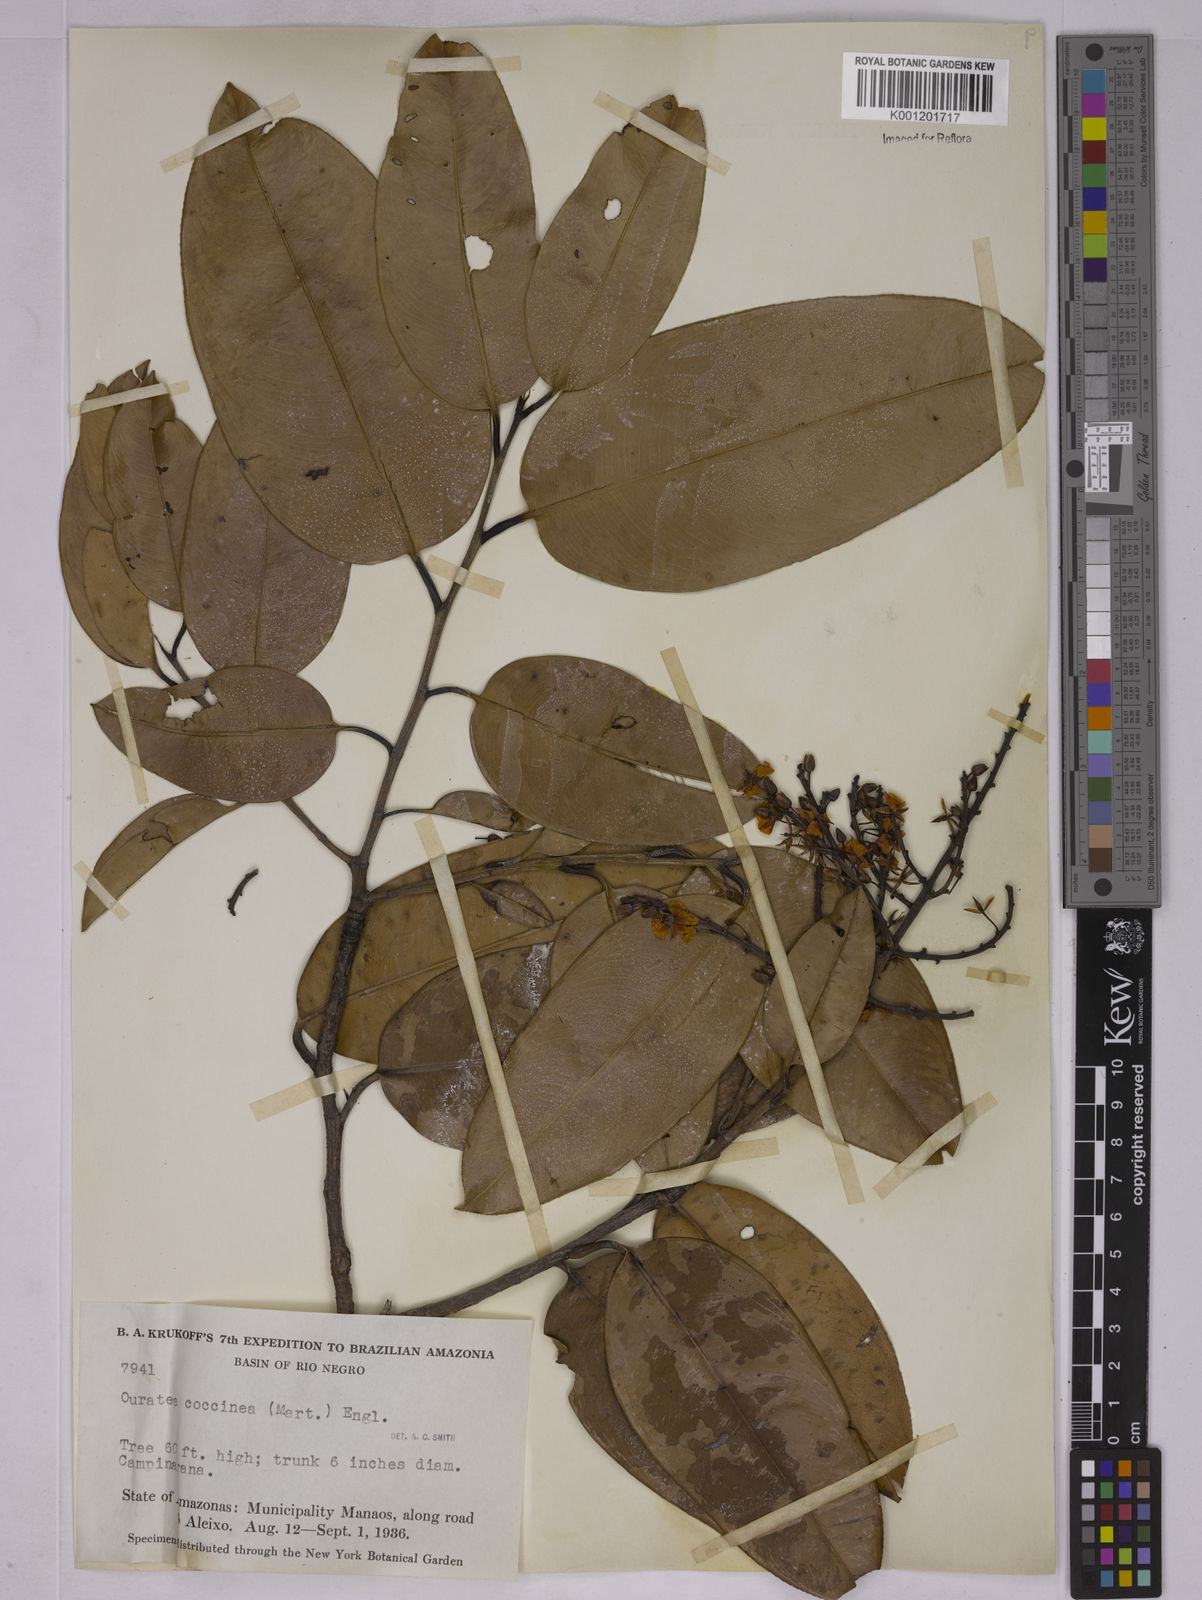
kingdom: Plantae
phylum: Tracheophyta
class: Magnoliopsida
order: Malpighiales
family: Ochnaceae
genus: Ouratea
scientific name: Ouratea coccinea
